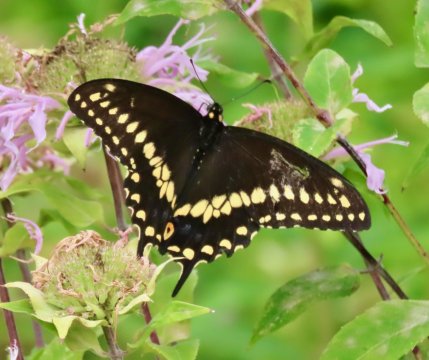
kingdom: Animalia
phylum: Arthropoda
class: Insecta
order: Lepidoptera
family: Papilionidae
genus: Papilio
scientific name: Papilio polyxenes
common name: Black Swallowtail
